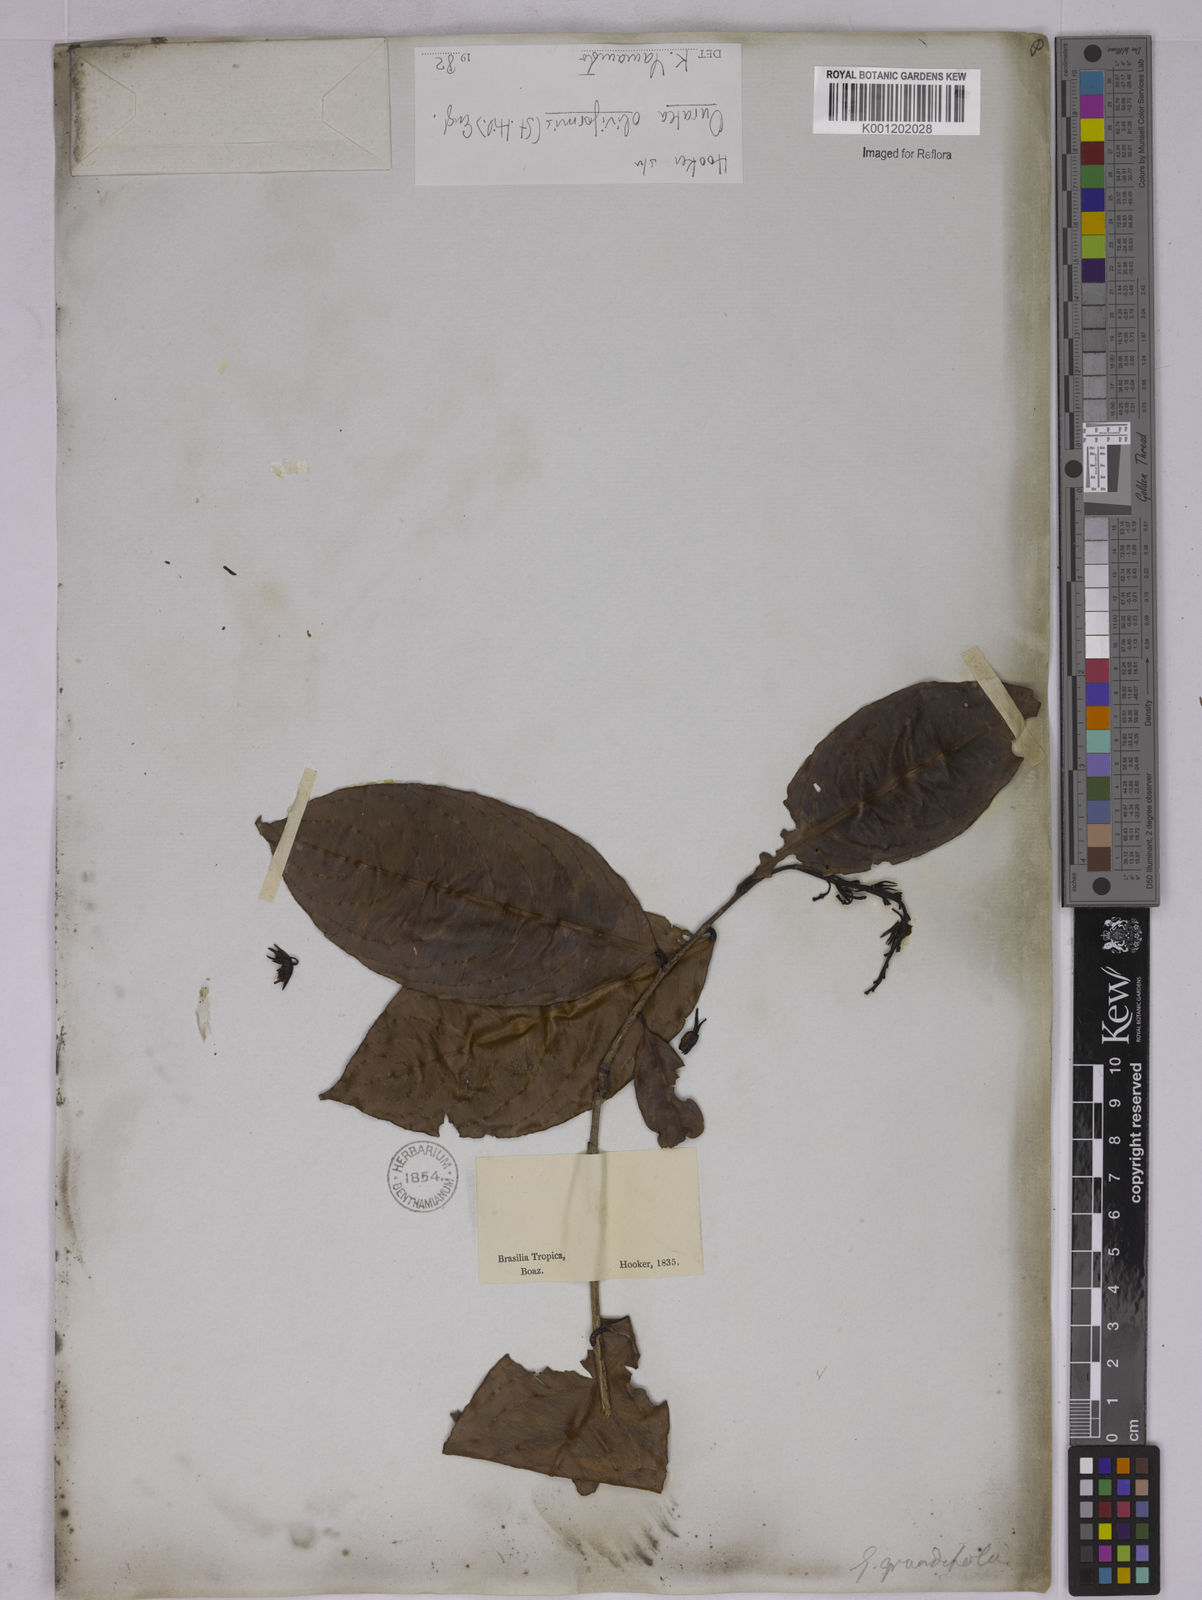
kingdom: Plantae
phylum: Tracheophyta
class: Magnoliopsida
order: Malpighiales
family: Ochnaceae
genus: Ouratea
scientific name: Ouratea oliviformis
